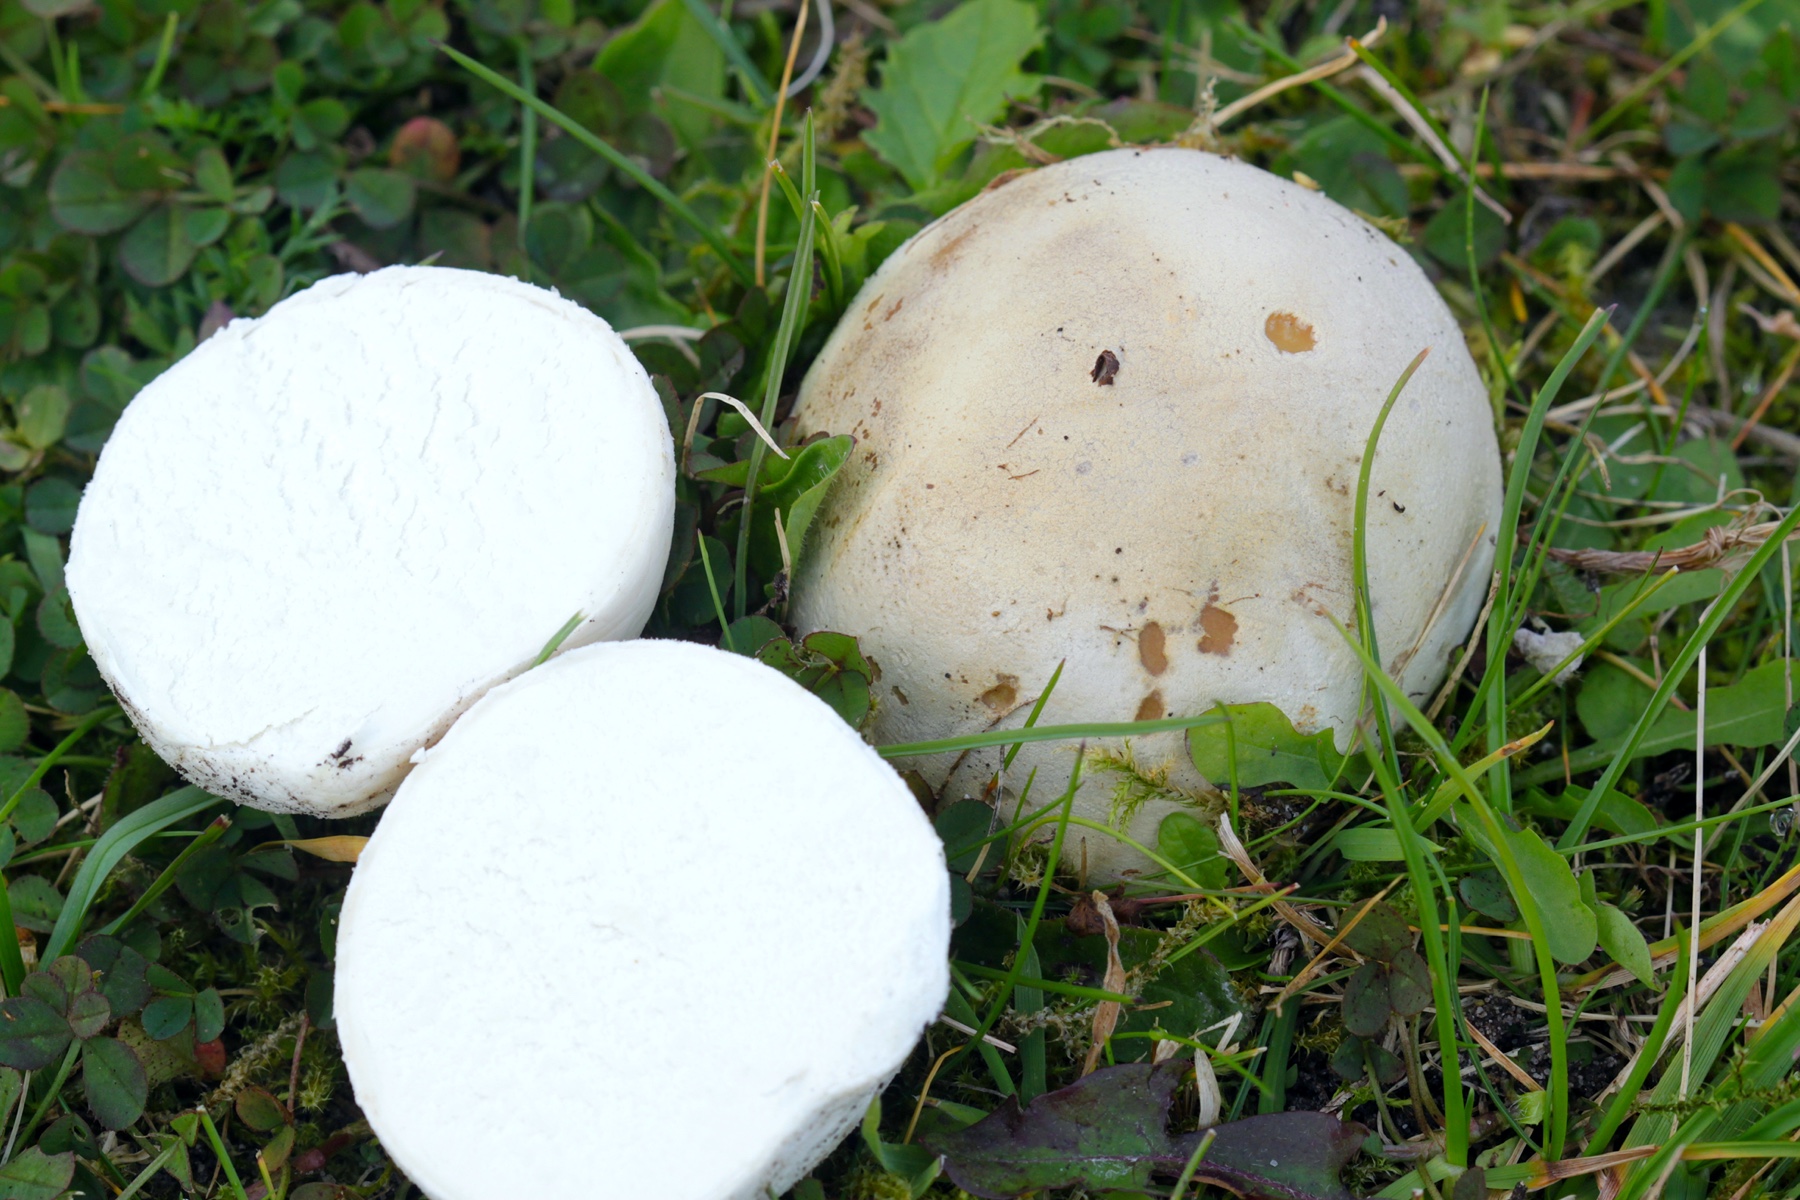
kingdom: Fungi
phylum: Basidiomycota
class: Agaricomycetes
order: Agaricales
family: Lycoperdaceae
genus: Bovista
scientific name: Bovista
